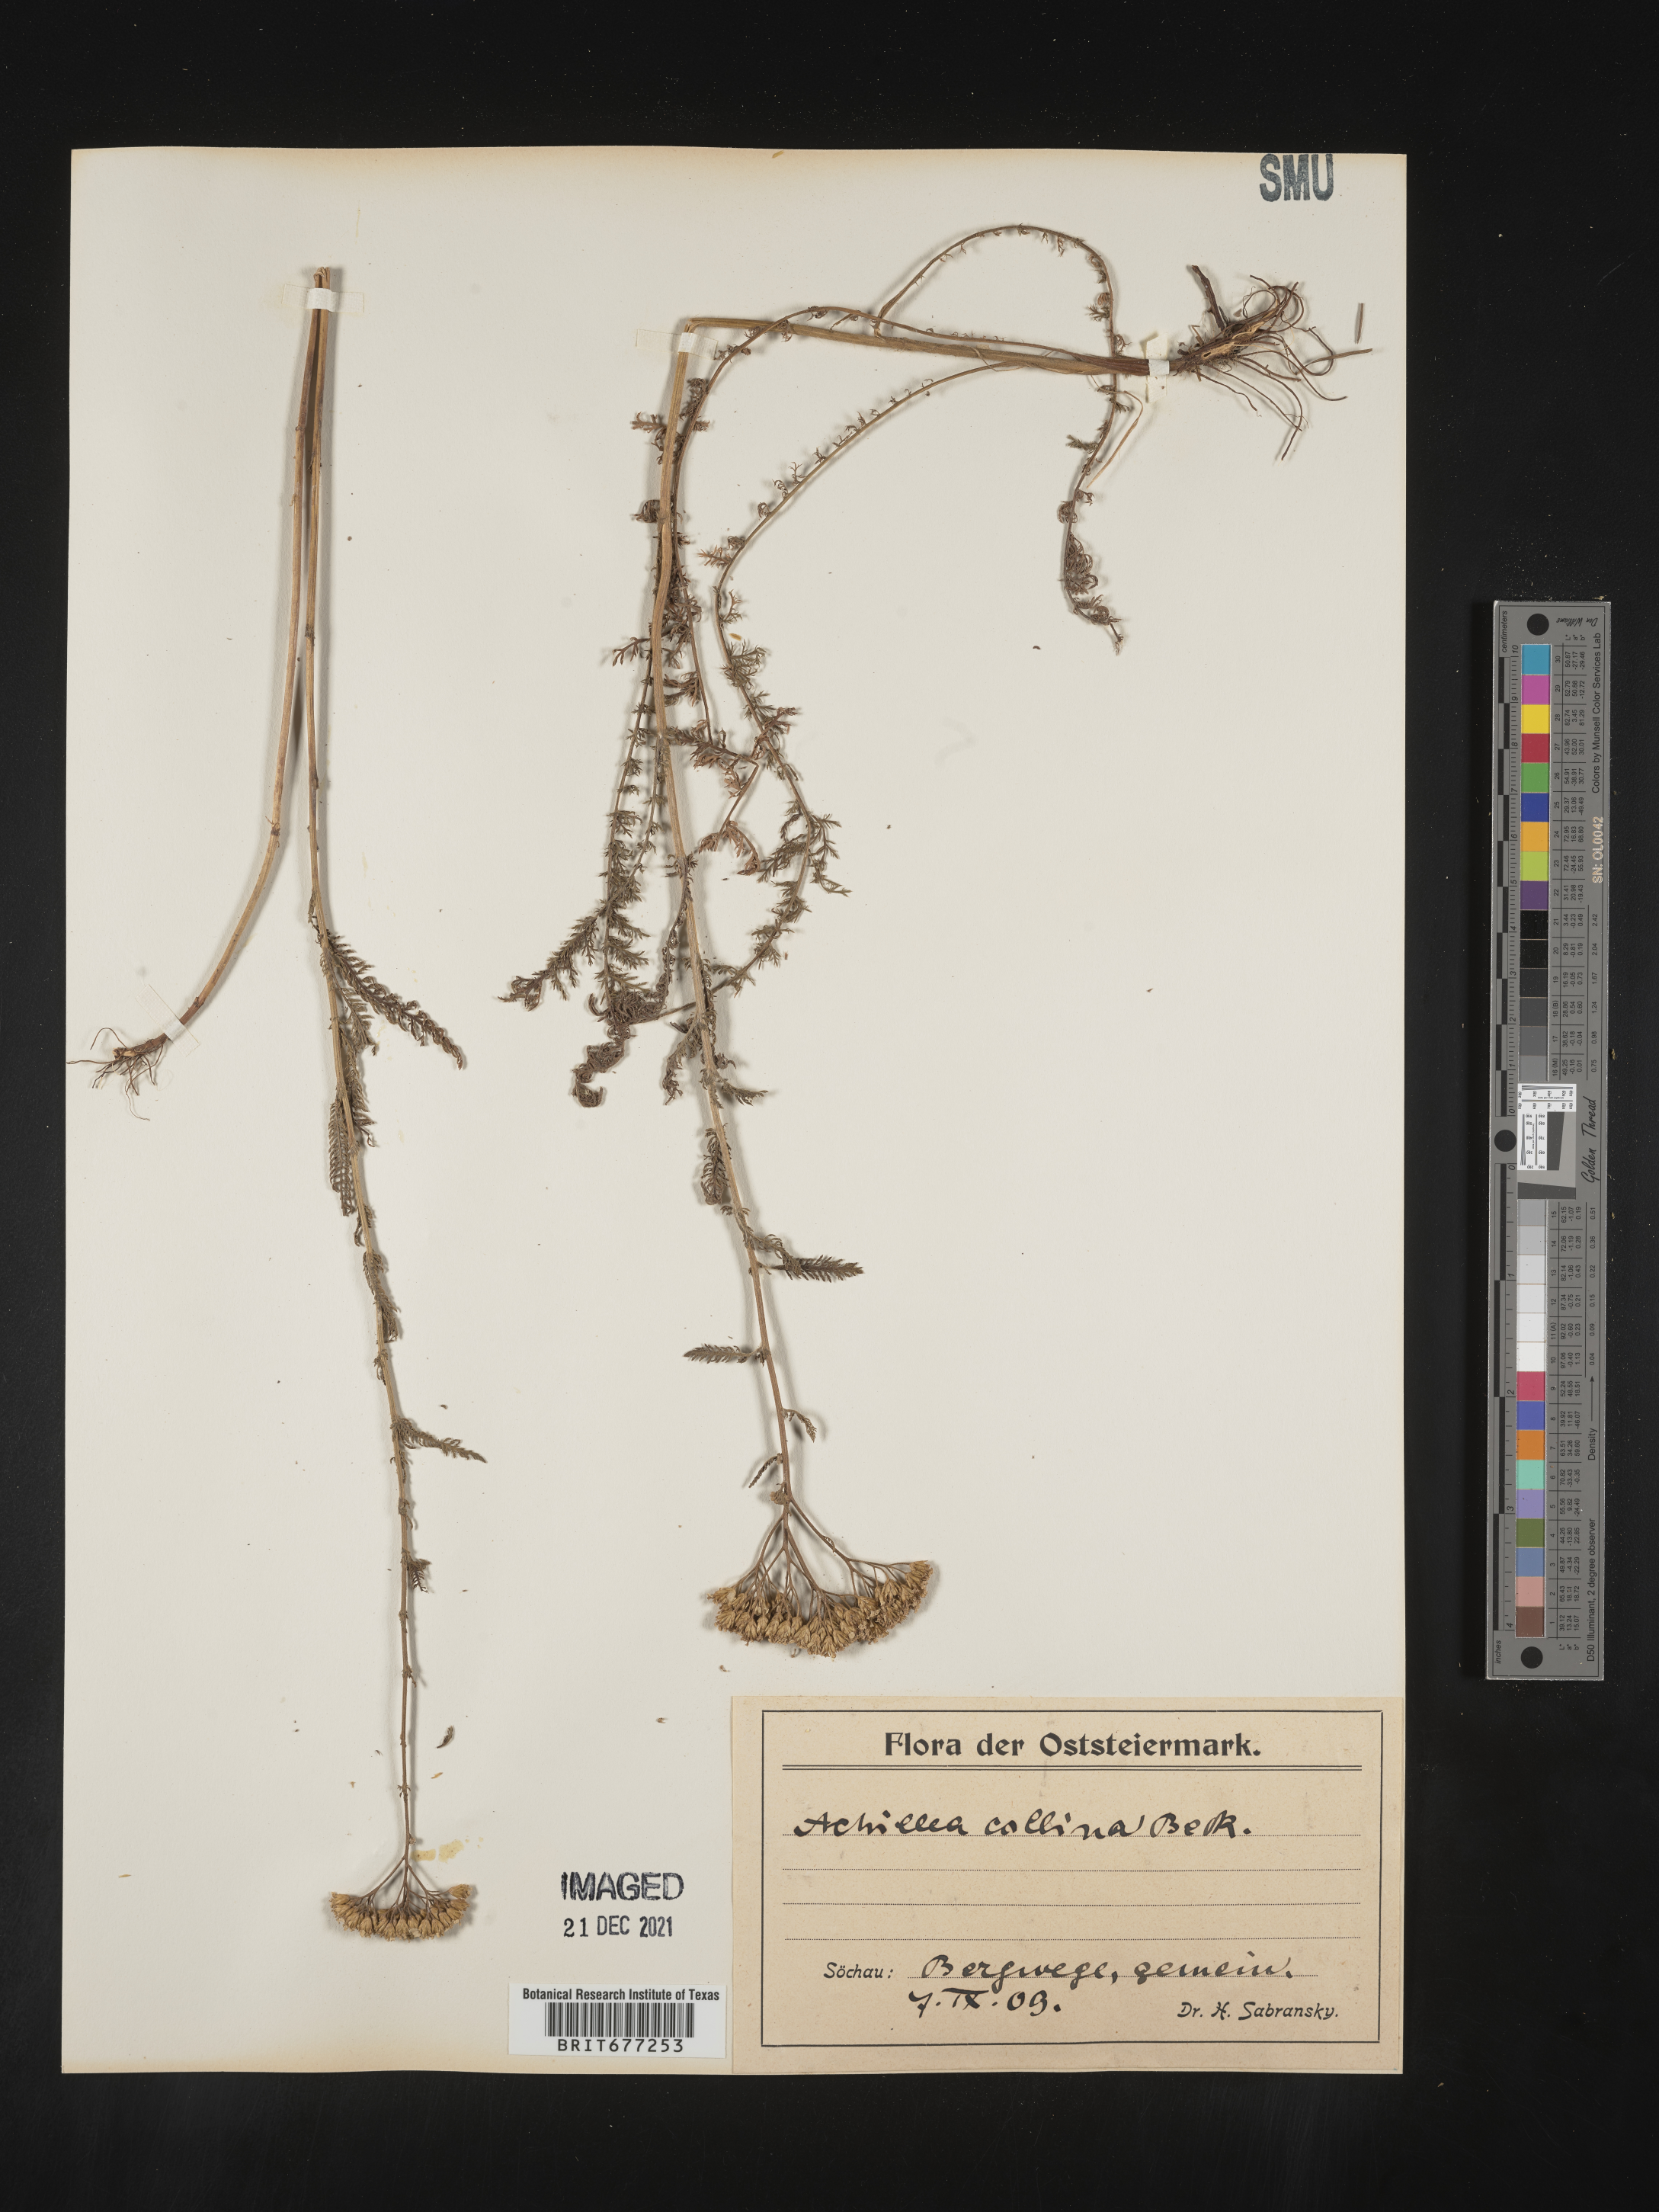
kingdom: Plantae
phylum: Tracheophyta
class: Magnoliopsida
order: Asterales
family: Asteraceae
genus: Achillea
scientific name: Achillea
